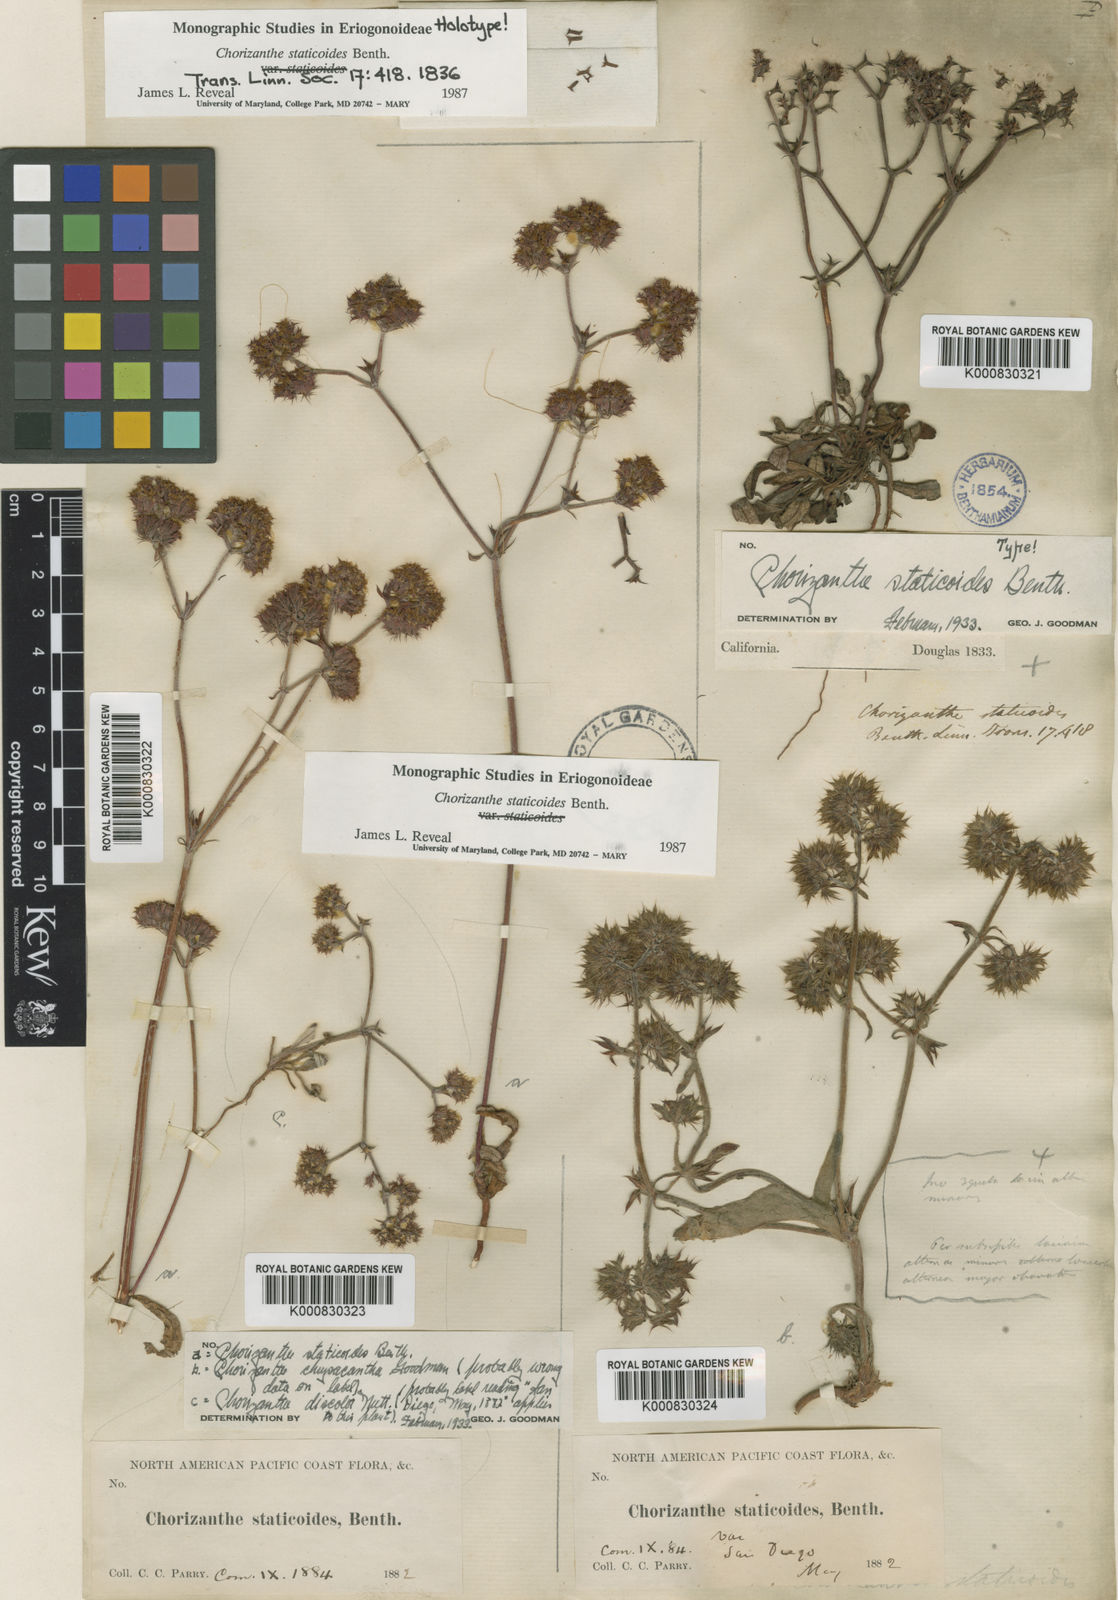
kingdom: Plantae
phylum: Tracheophyta
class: Magnoliopsida
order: Caryophyllales
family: Polygonaceae
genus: Chorizanthe
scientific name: Chorizanthe staticoides
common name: Turkish rugging
